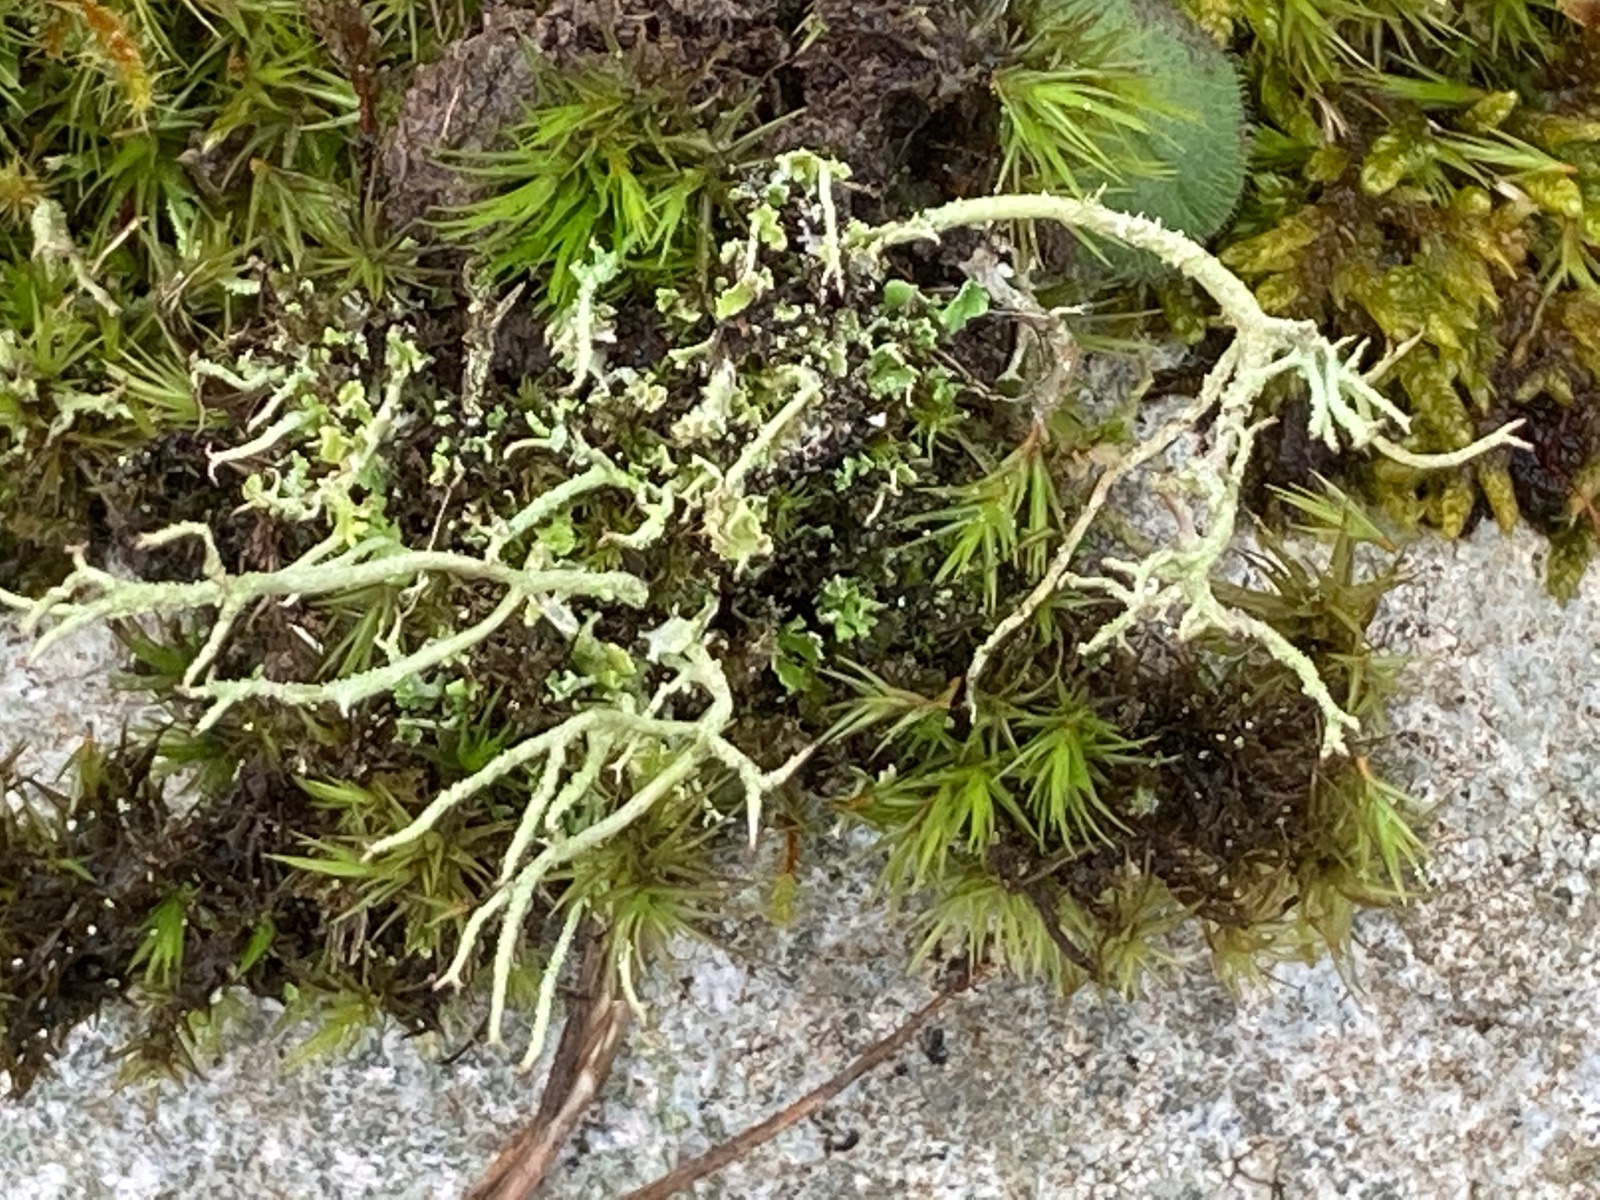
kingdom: Fungi
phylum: Ascomycota
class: Lecanoromycetes
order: Lecanorales
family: Cladoniaceae
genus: Cladonia
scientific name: Cladonia scabriuscula
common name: ru bægerlav
